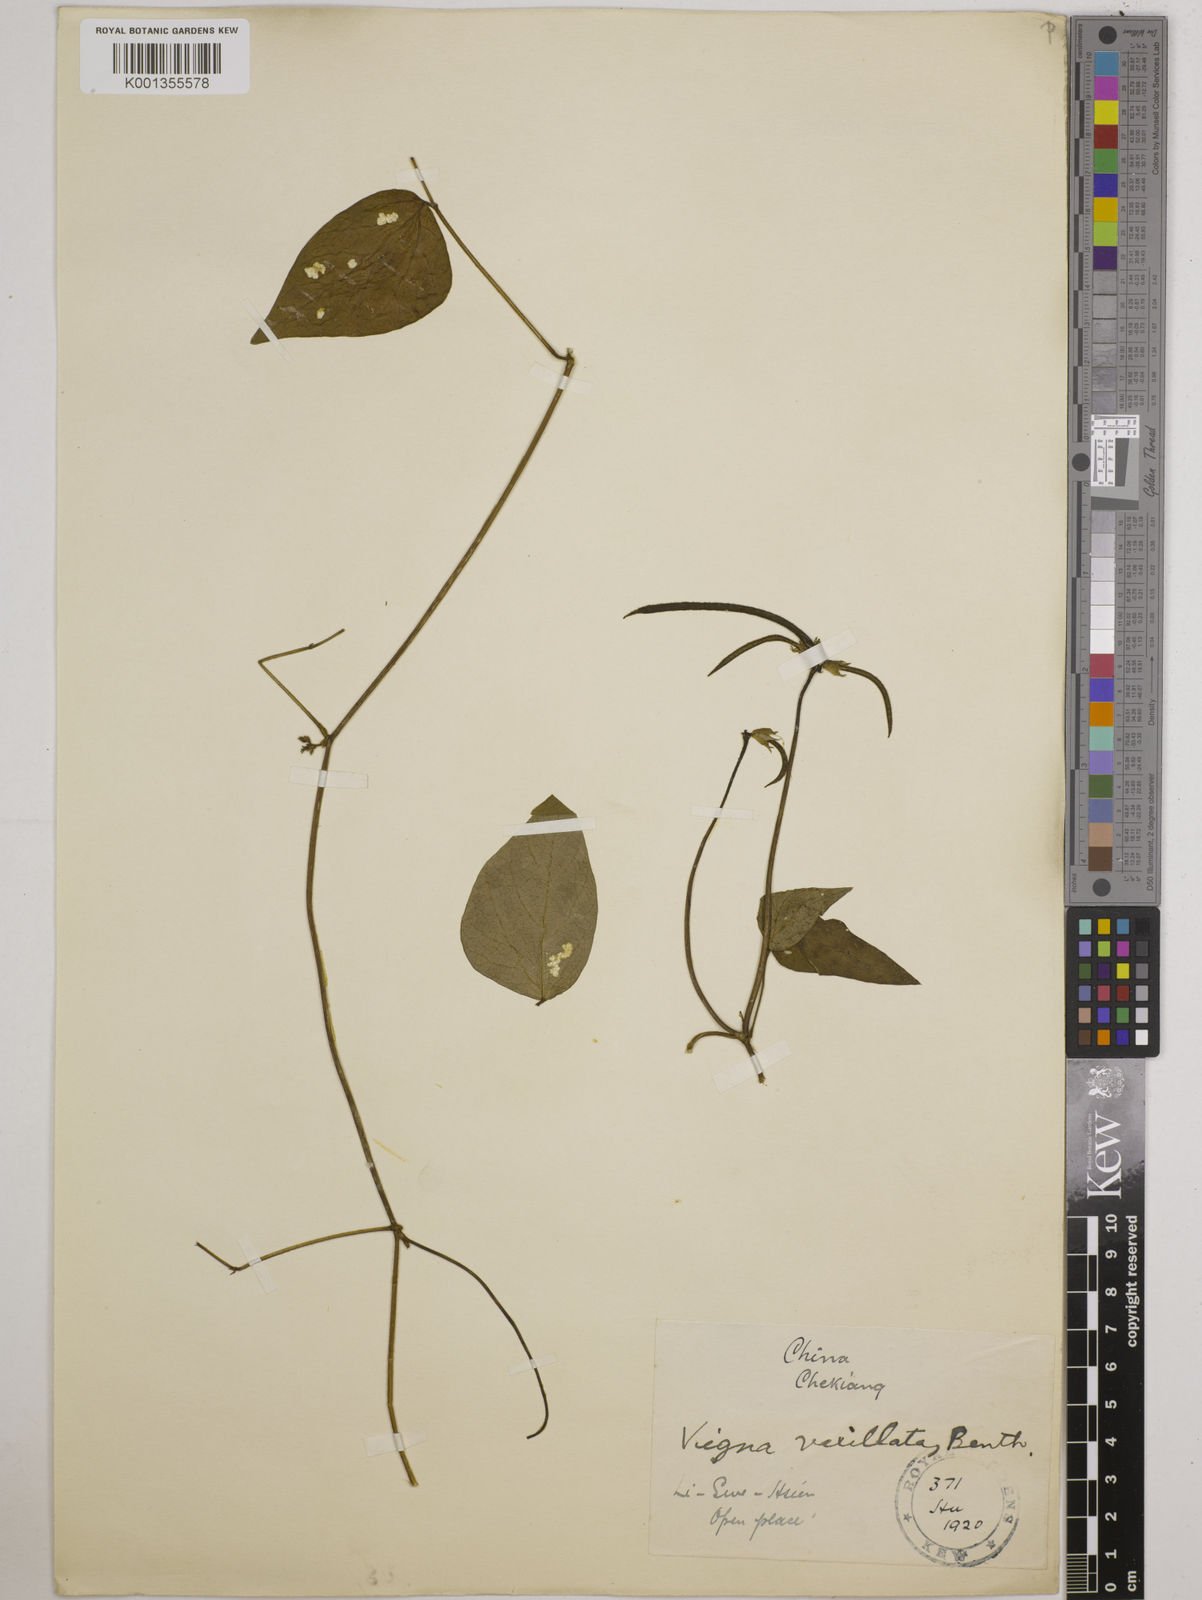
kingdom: Plantae
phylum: Tracheophyta
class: Magnoliopsida
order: Fabales
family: Fabaceae
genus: Vigna
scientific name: Vigna vexillata
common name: Zombi pea
